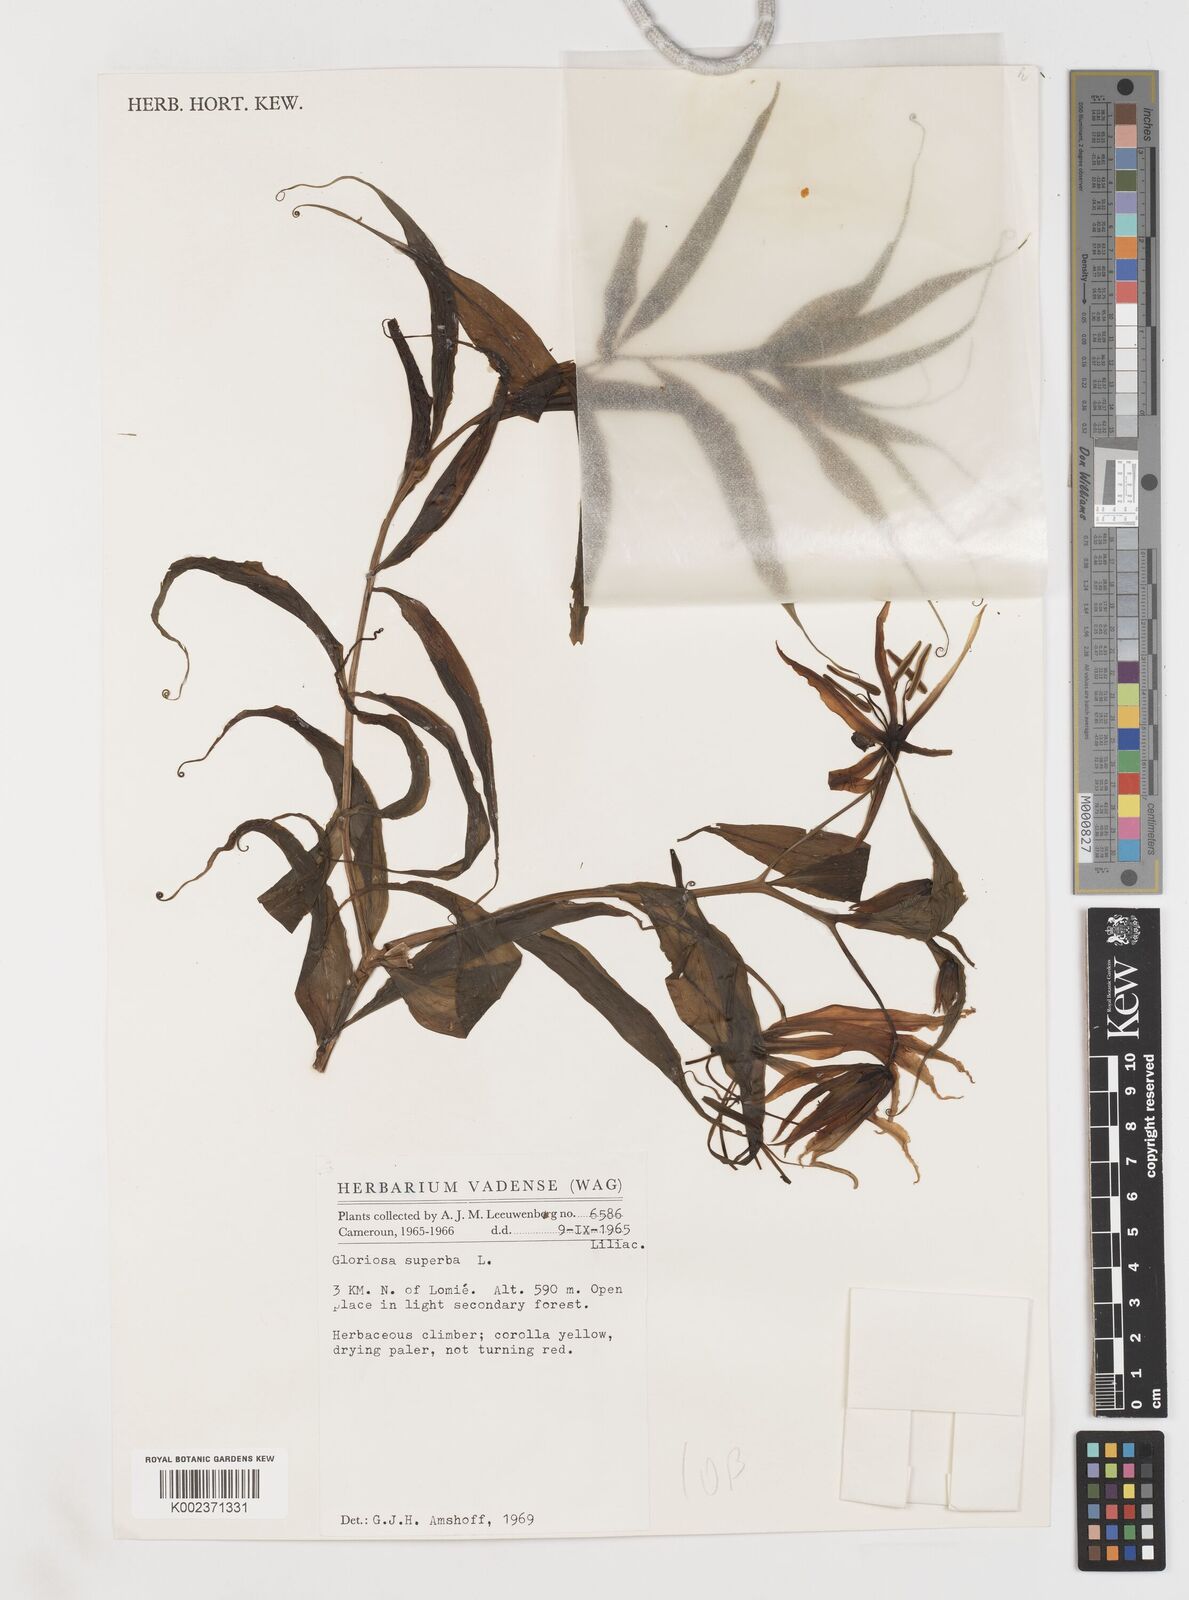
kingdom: Plantae
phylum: Tracheophyta
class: Liliopsida
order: Liliales
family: Colchicaceae
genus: Gloriosa
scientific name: Gloriosa superba
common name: Flame lily
